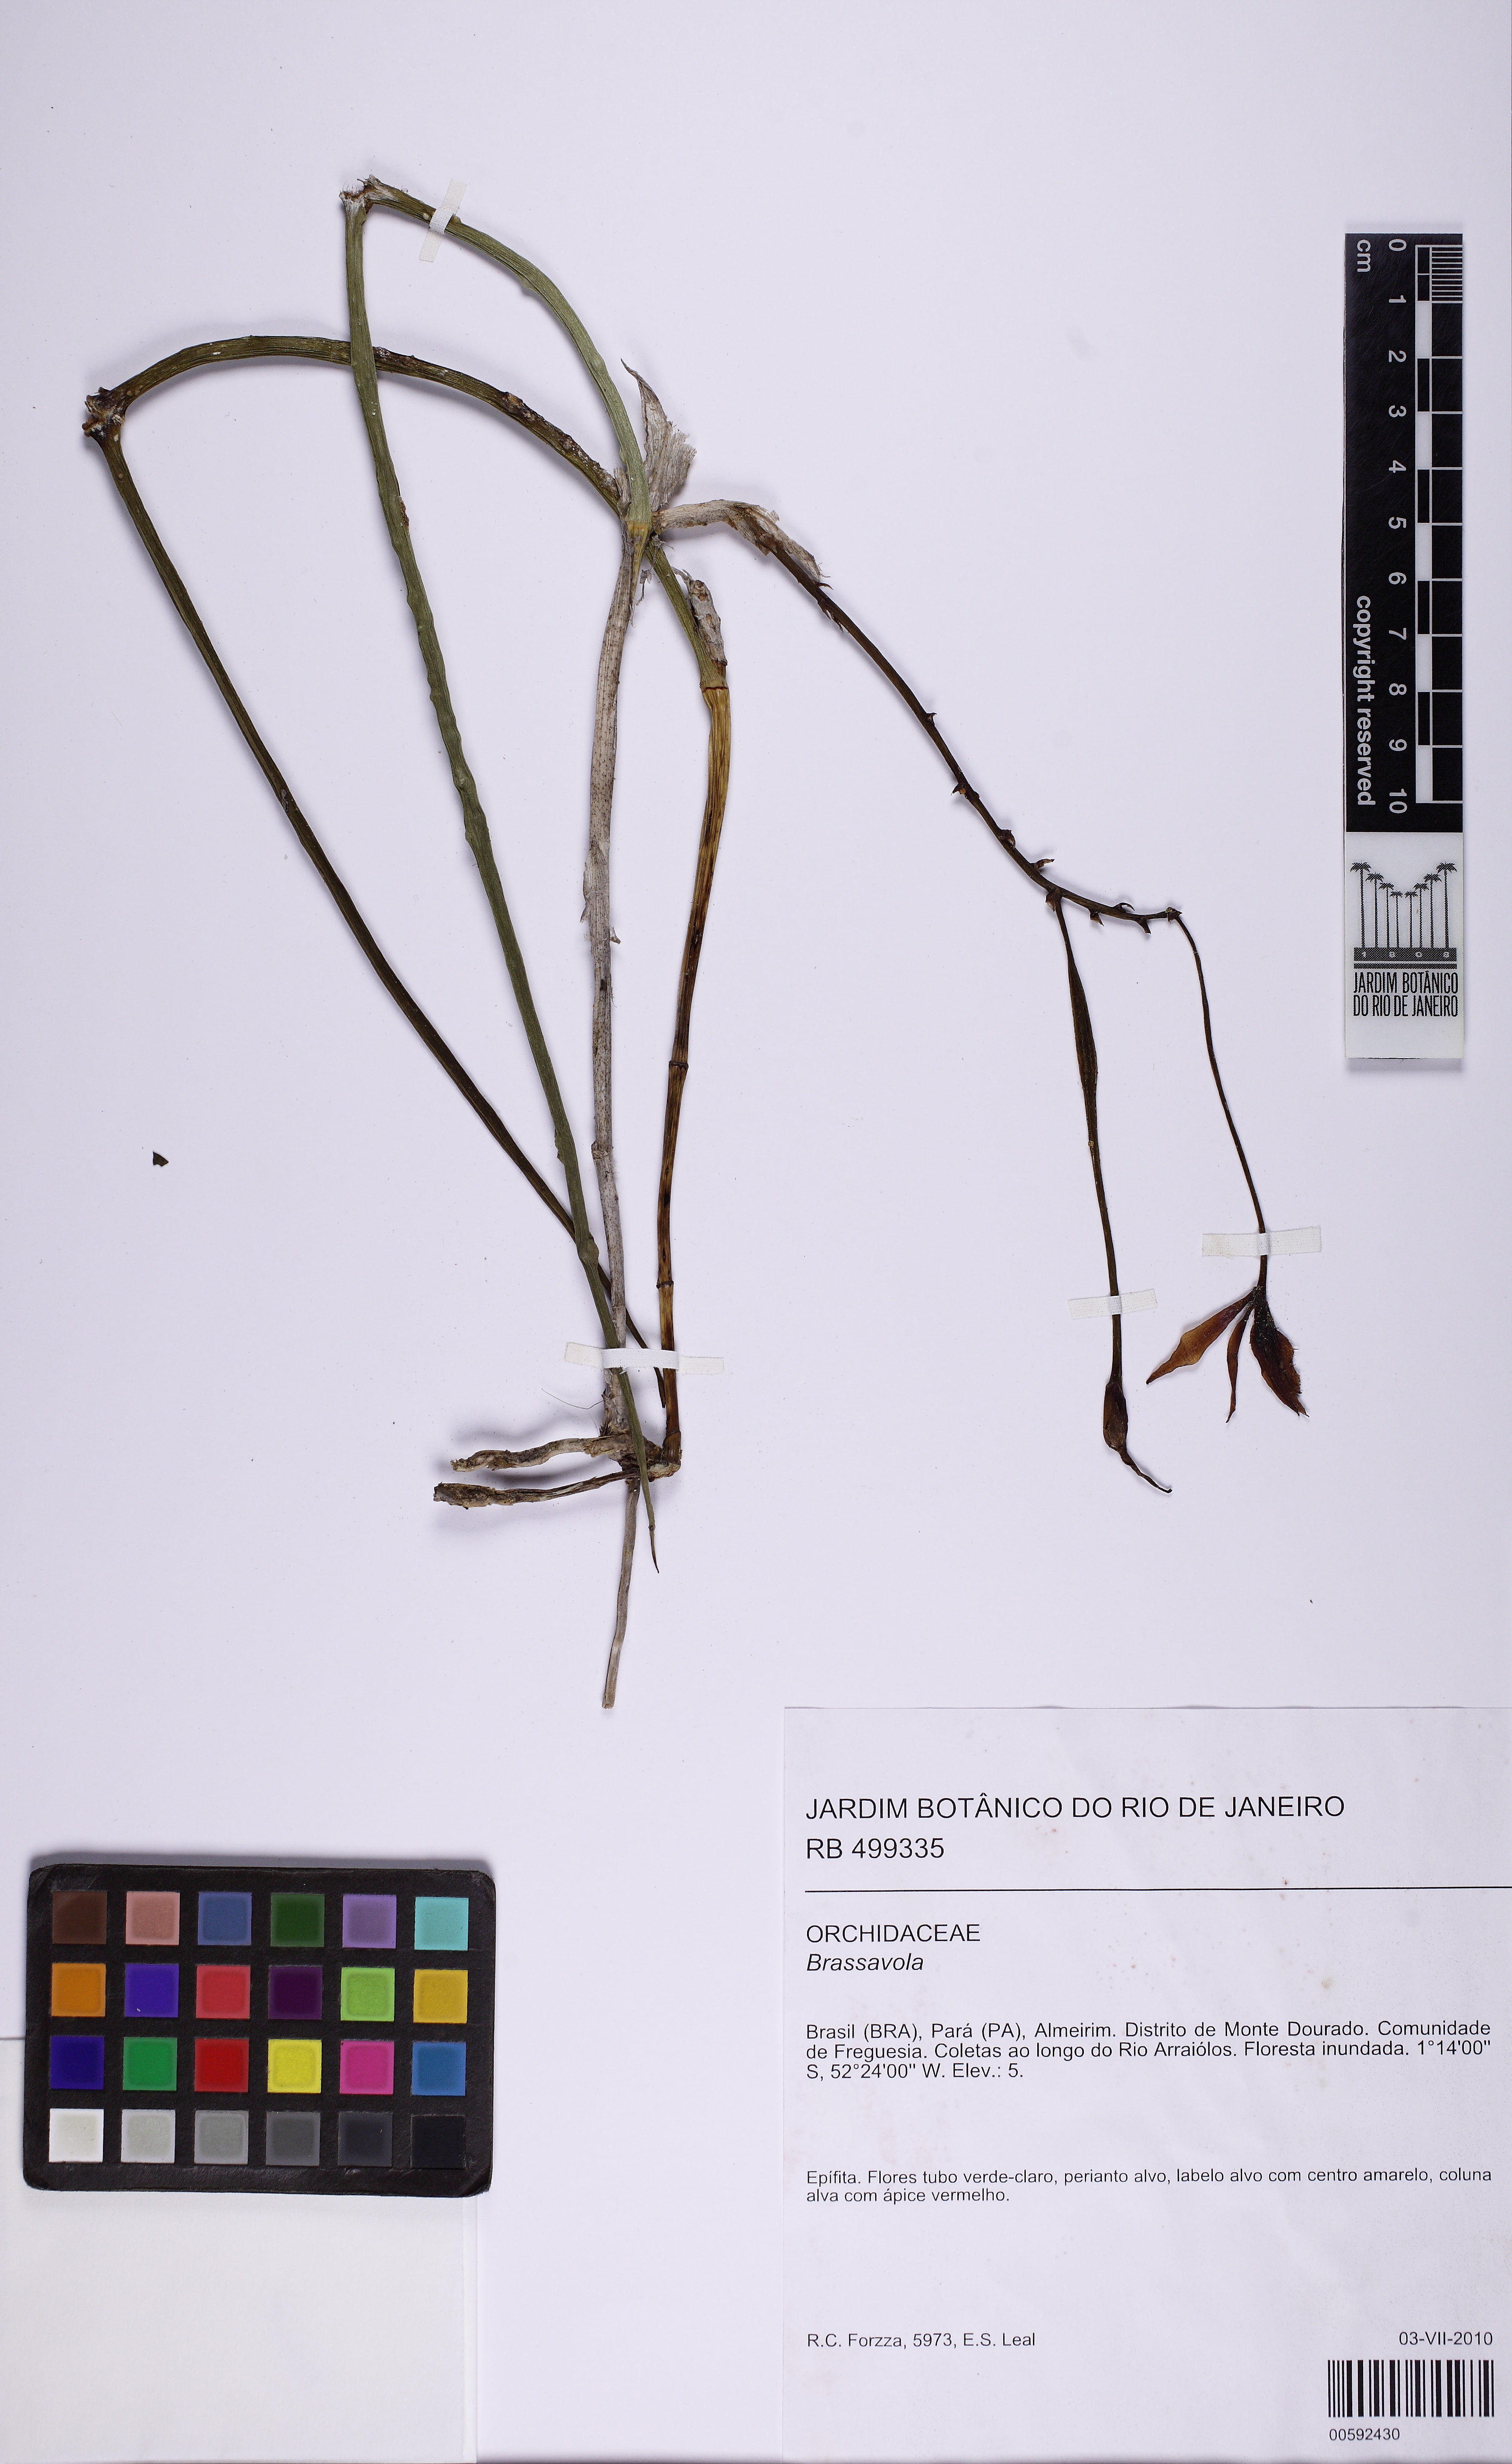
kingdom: Plantae
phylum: Tracheophyta
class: Liliopsida
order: Asparagales
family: Orchidaceae
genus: Brassavola
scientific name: Brassavola
